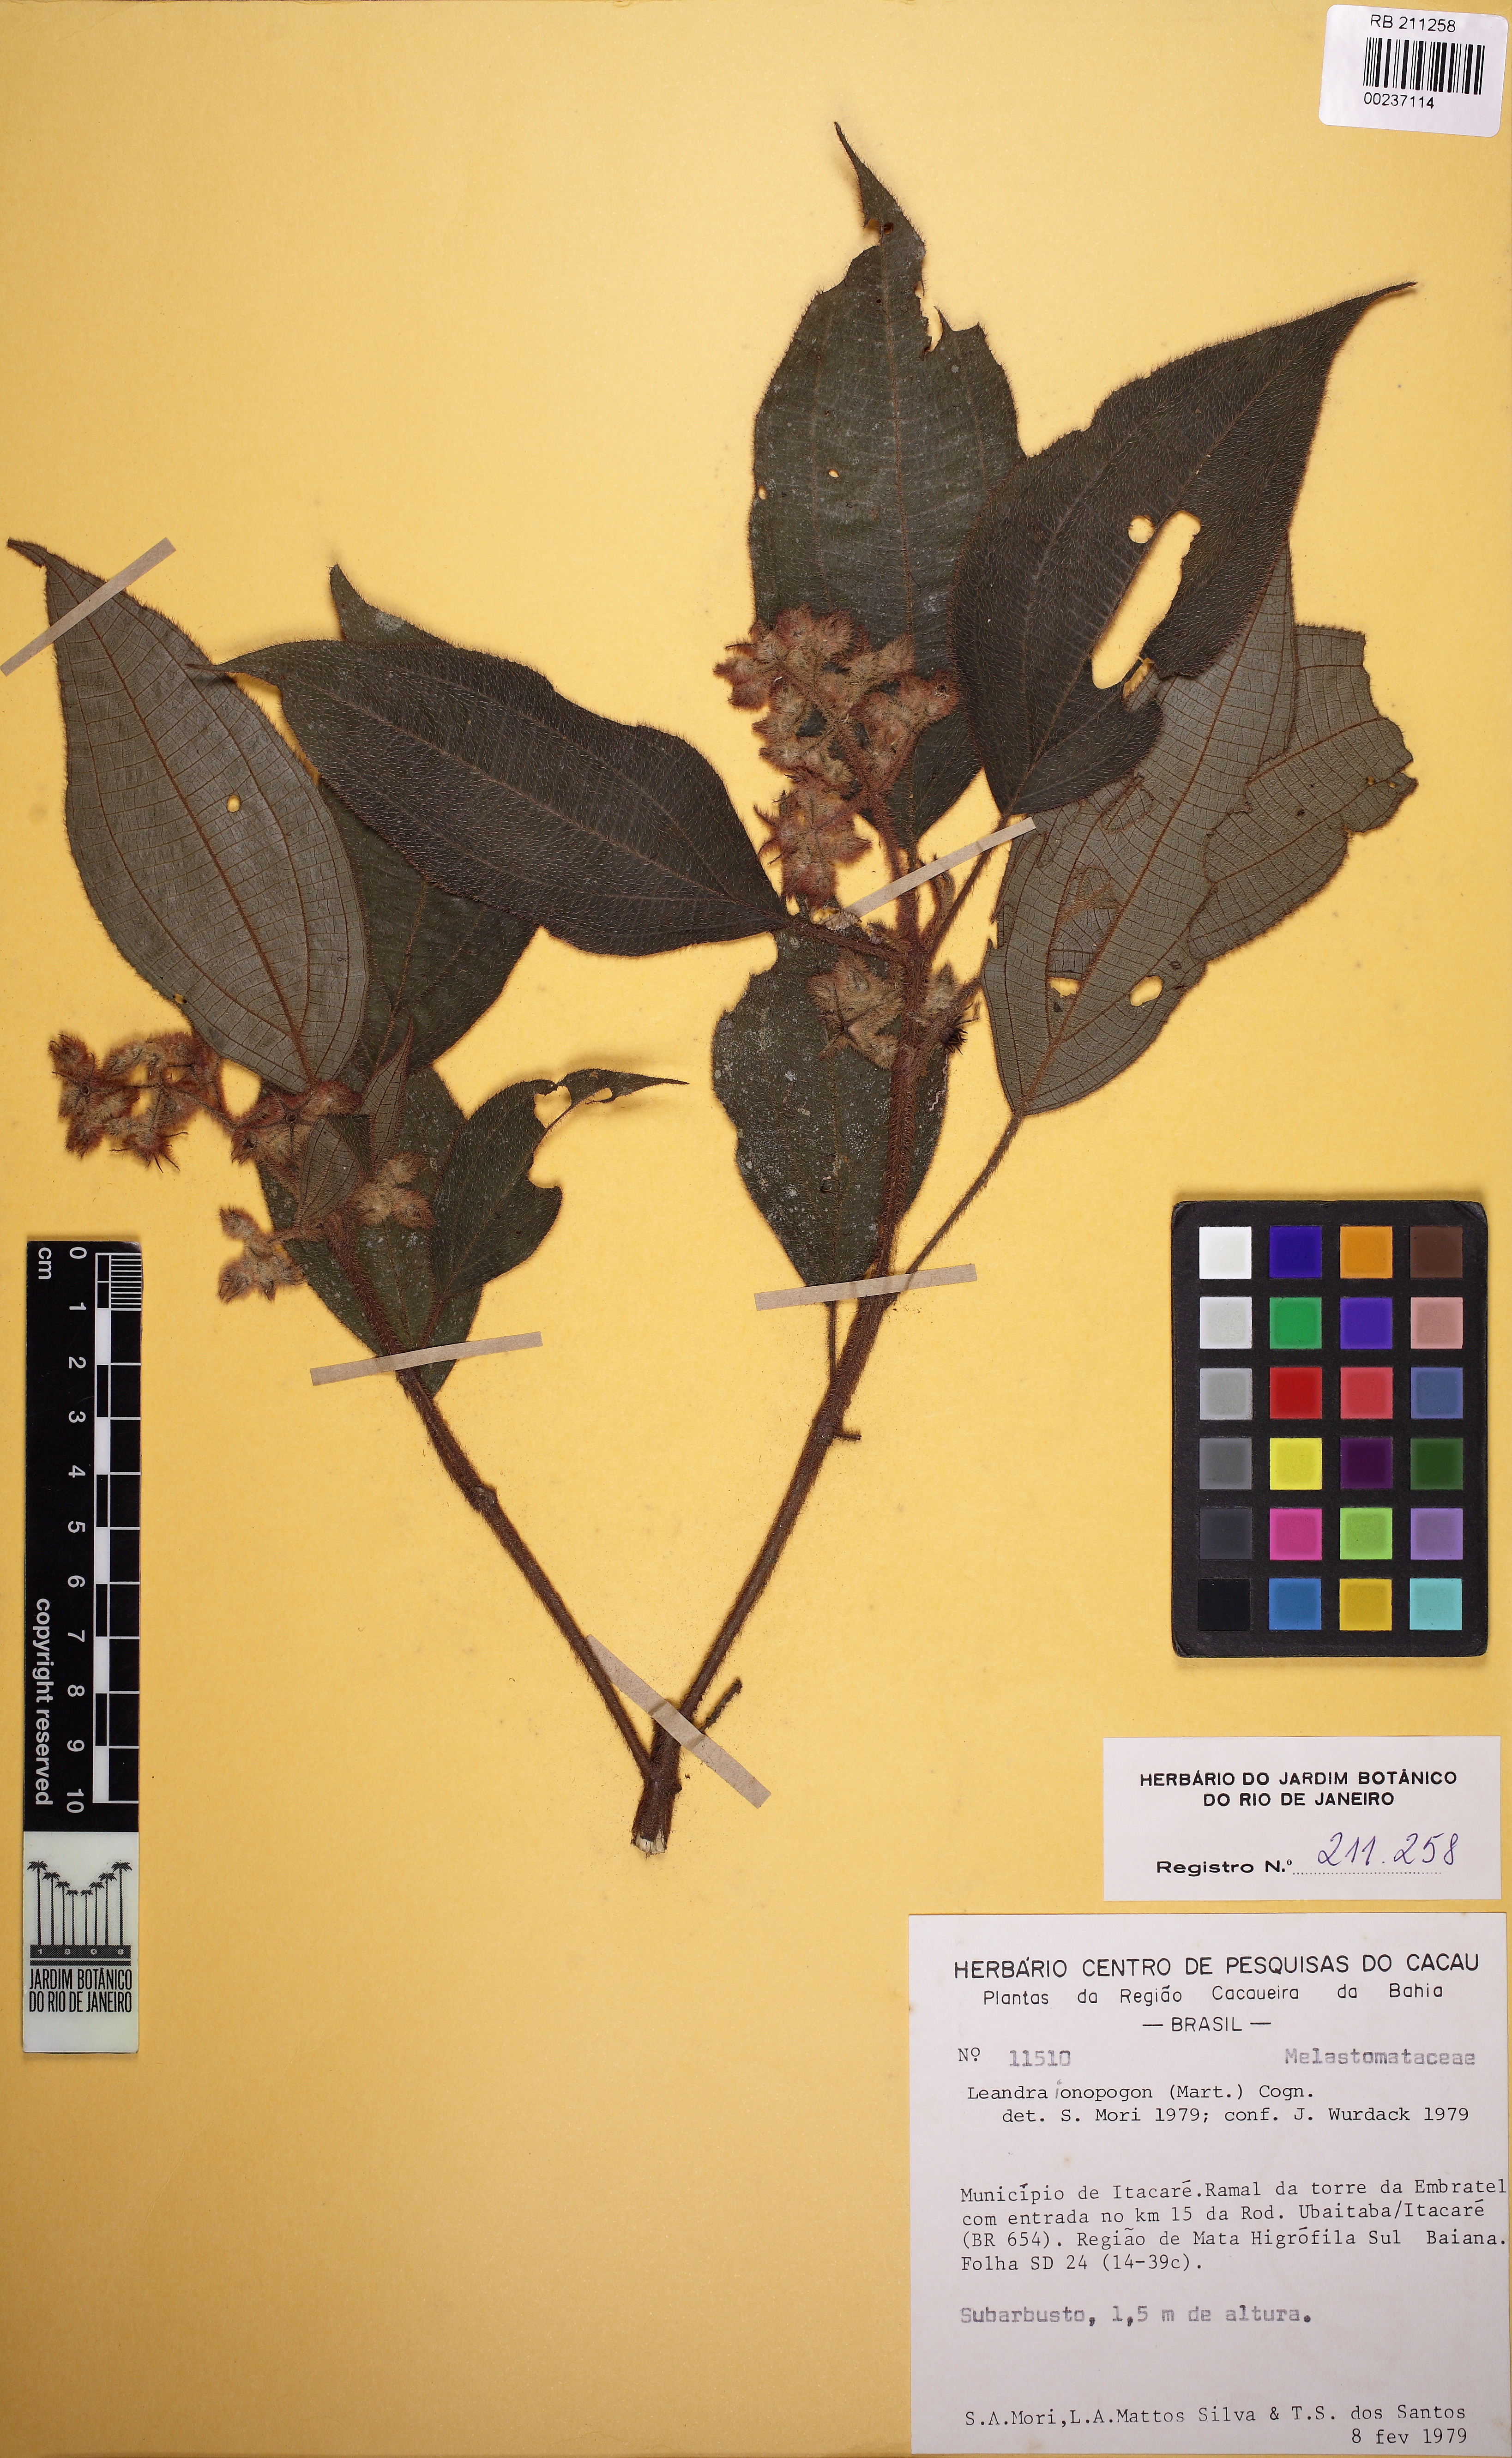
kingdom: Plantae
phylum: Tracheophyta
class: Magnoliopsida
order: Myrtales
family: Melastomataceae
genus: Miconia
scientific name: Miconia ionopogon
